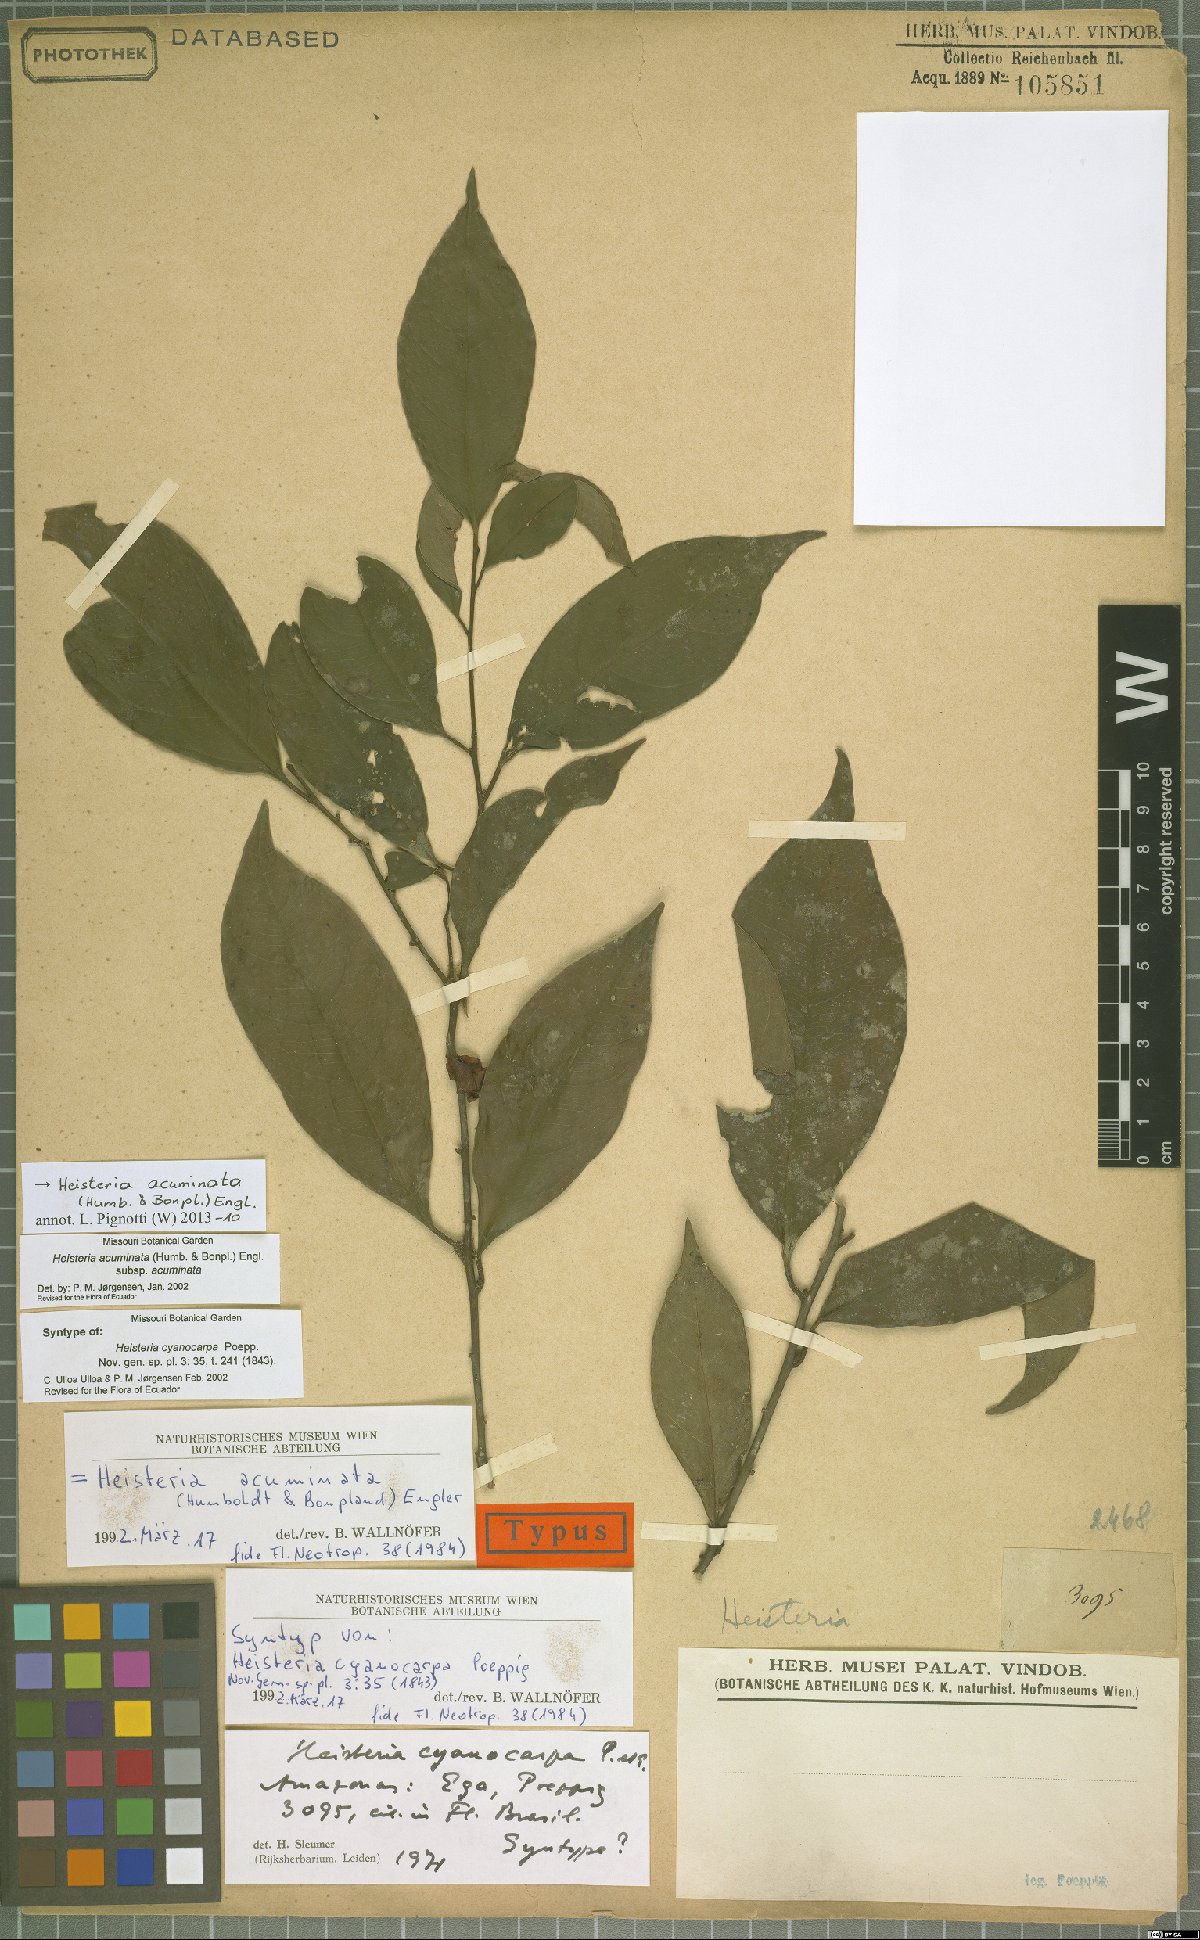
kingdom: Plantae
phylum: Tracheophyta
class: Magnoliopsida
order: Santalales
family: Erythropalaceae
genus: Heisteria
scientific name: Heisteria acuminata
